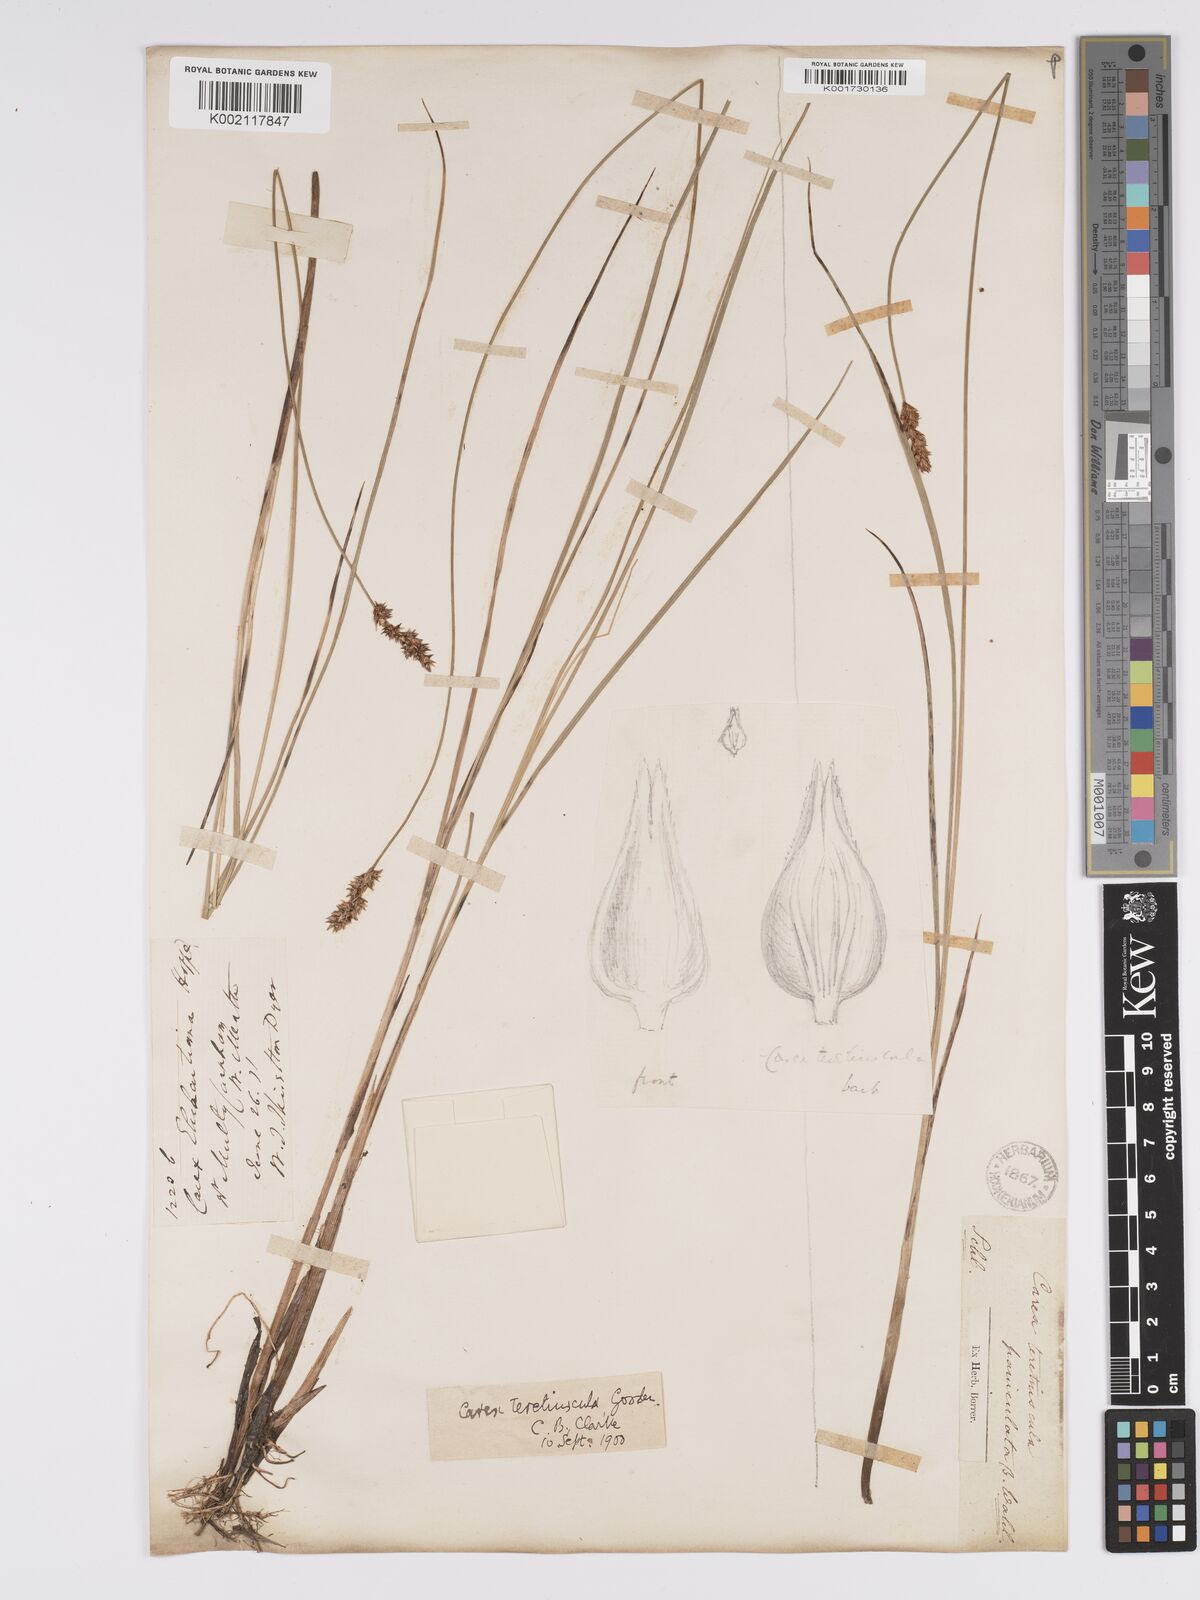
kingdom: Plantae
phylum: Tracheophyta
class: Liliopsida
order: Poales
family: Cyperaceae
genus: Carex
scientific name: Carex diandra
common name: Lesser tussock-sedge
